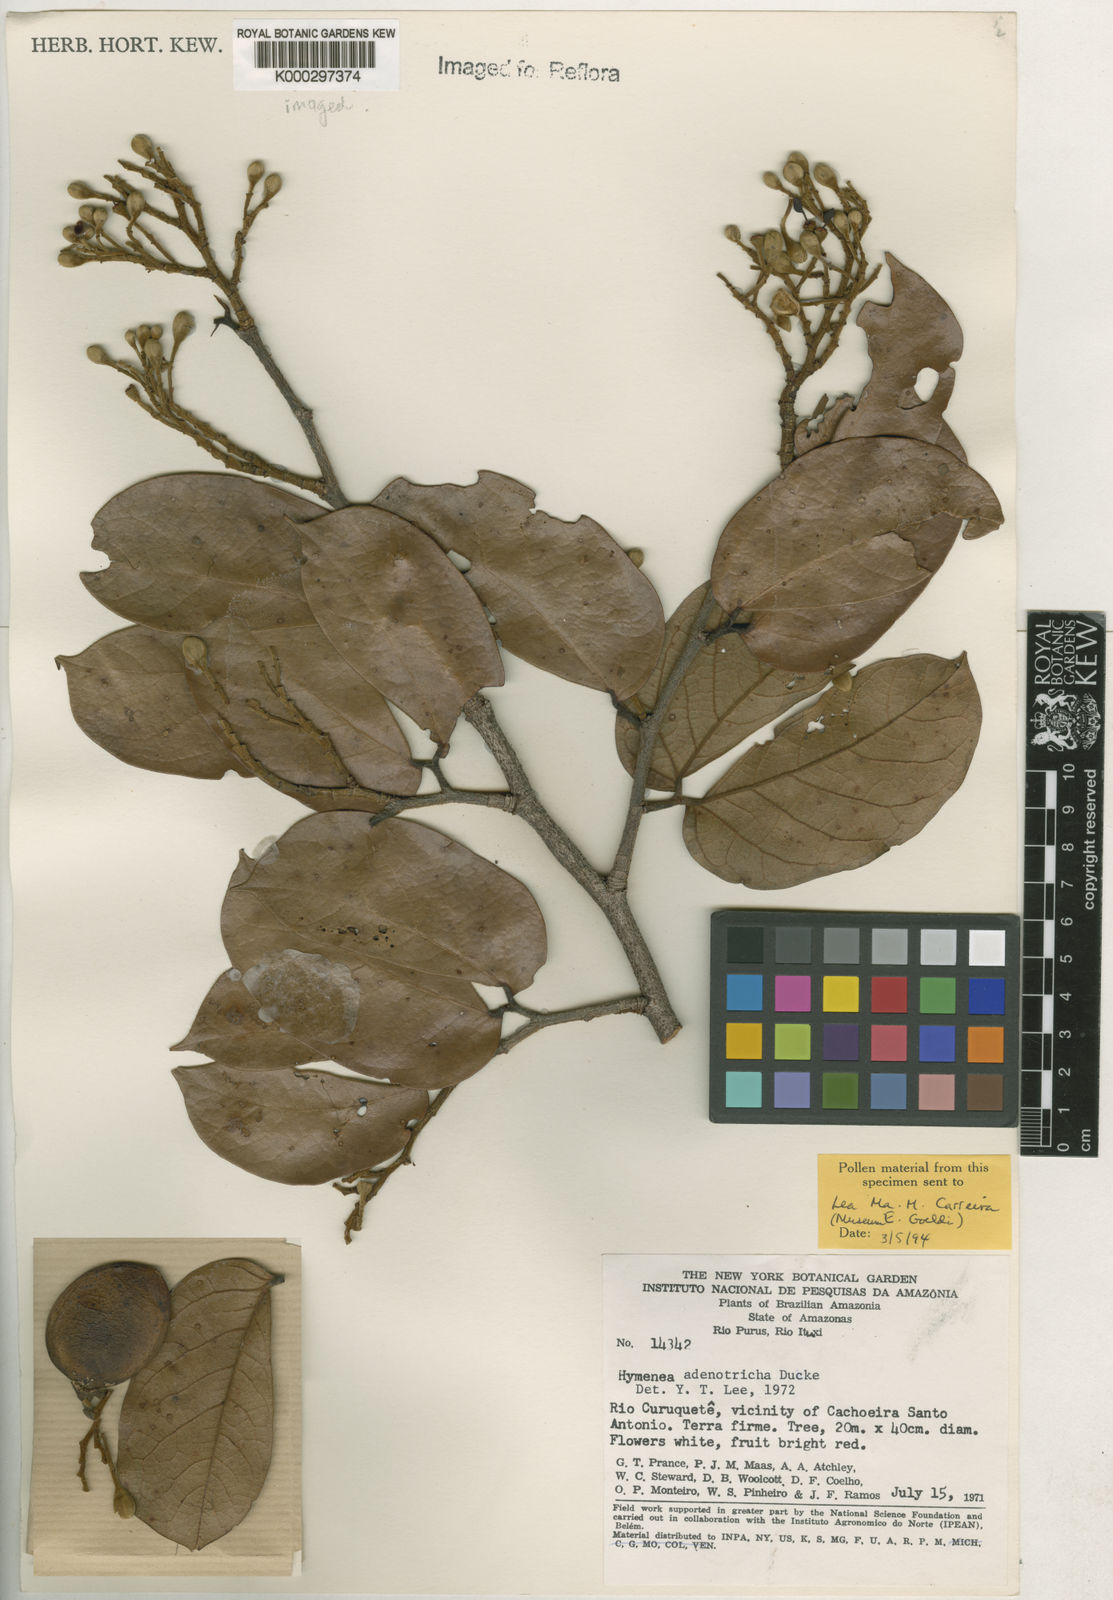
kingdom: Plantae
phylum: Tracheophyta
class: Magnoliopsida
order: Fabales
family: Fabaceae
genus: Hymenaea
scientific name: Hymenaea intermedia
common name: South american copal
